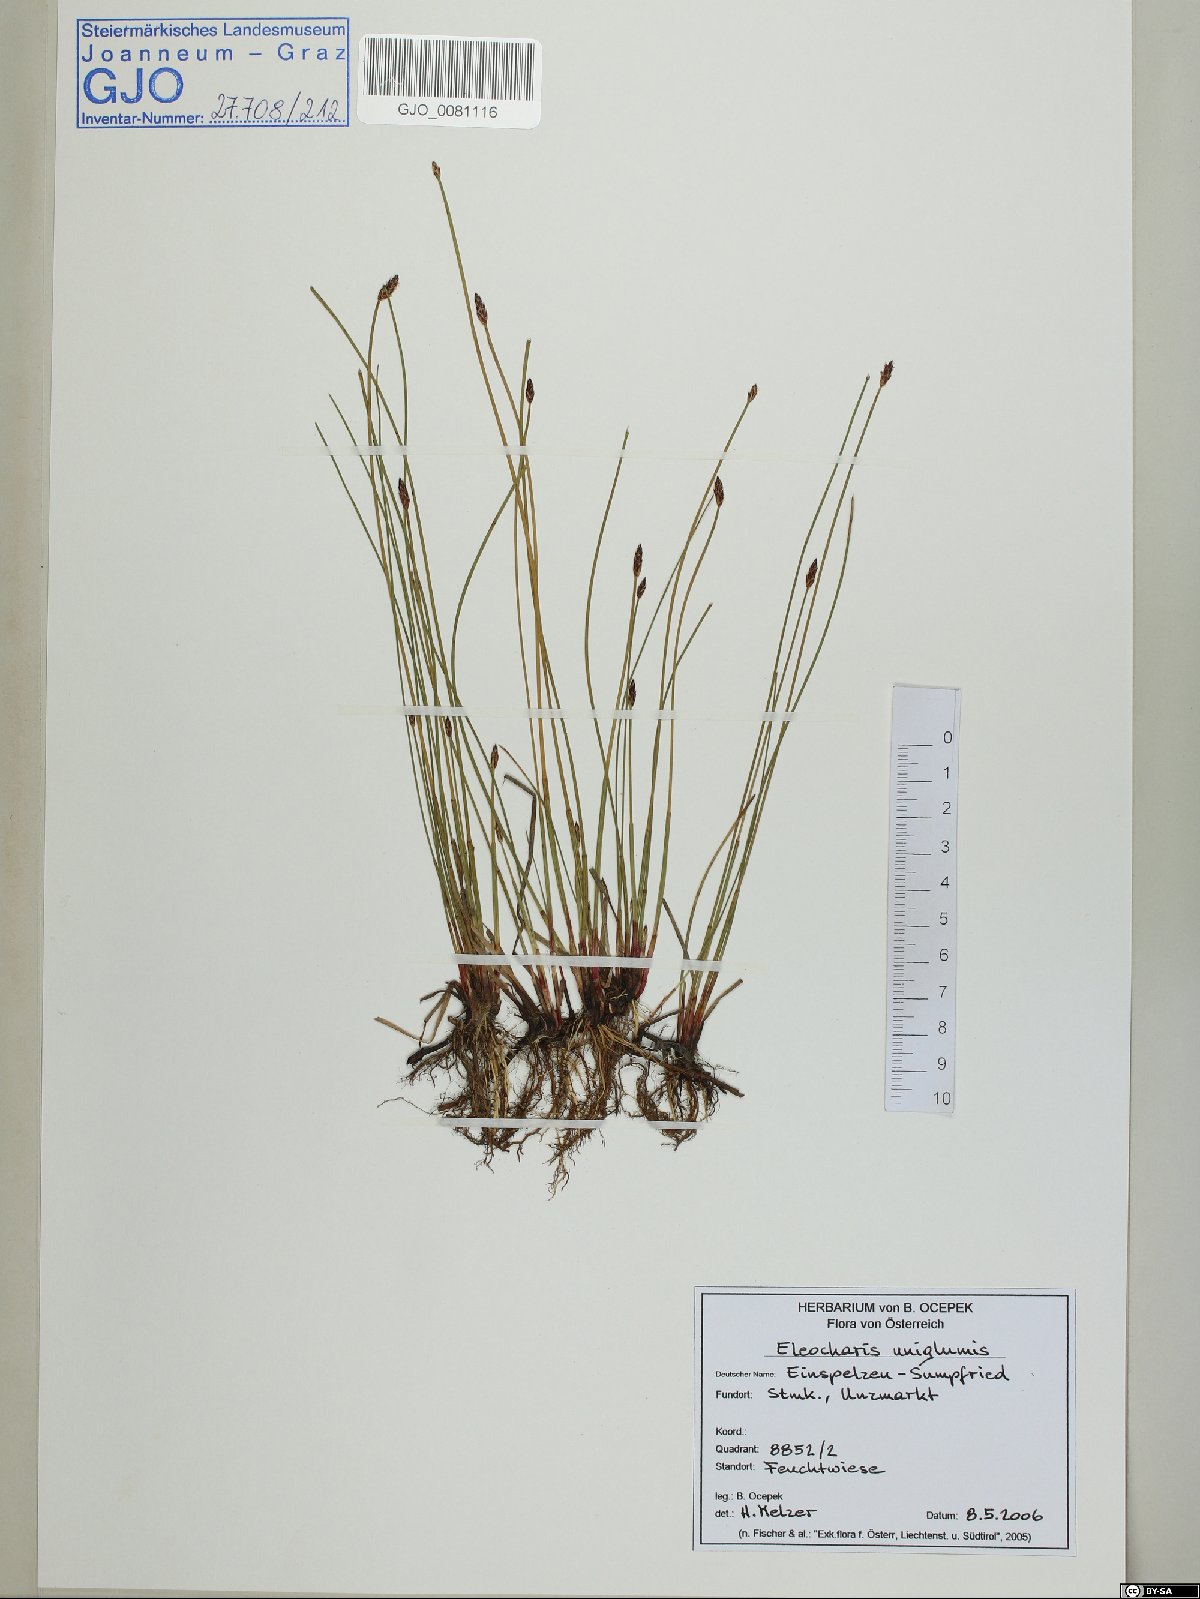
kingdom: Plantae
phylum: Tracheophyta
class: Liliopsida
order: Poales
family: Cyperaceae
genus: Eleocharis
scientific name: Eleocharis uniglumis
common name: Slender spike-rush
